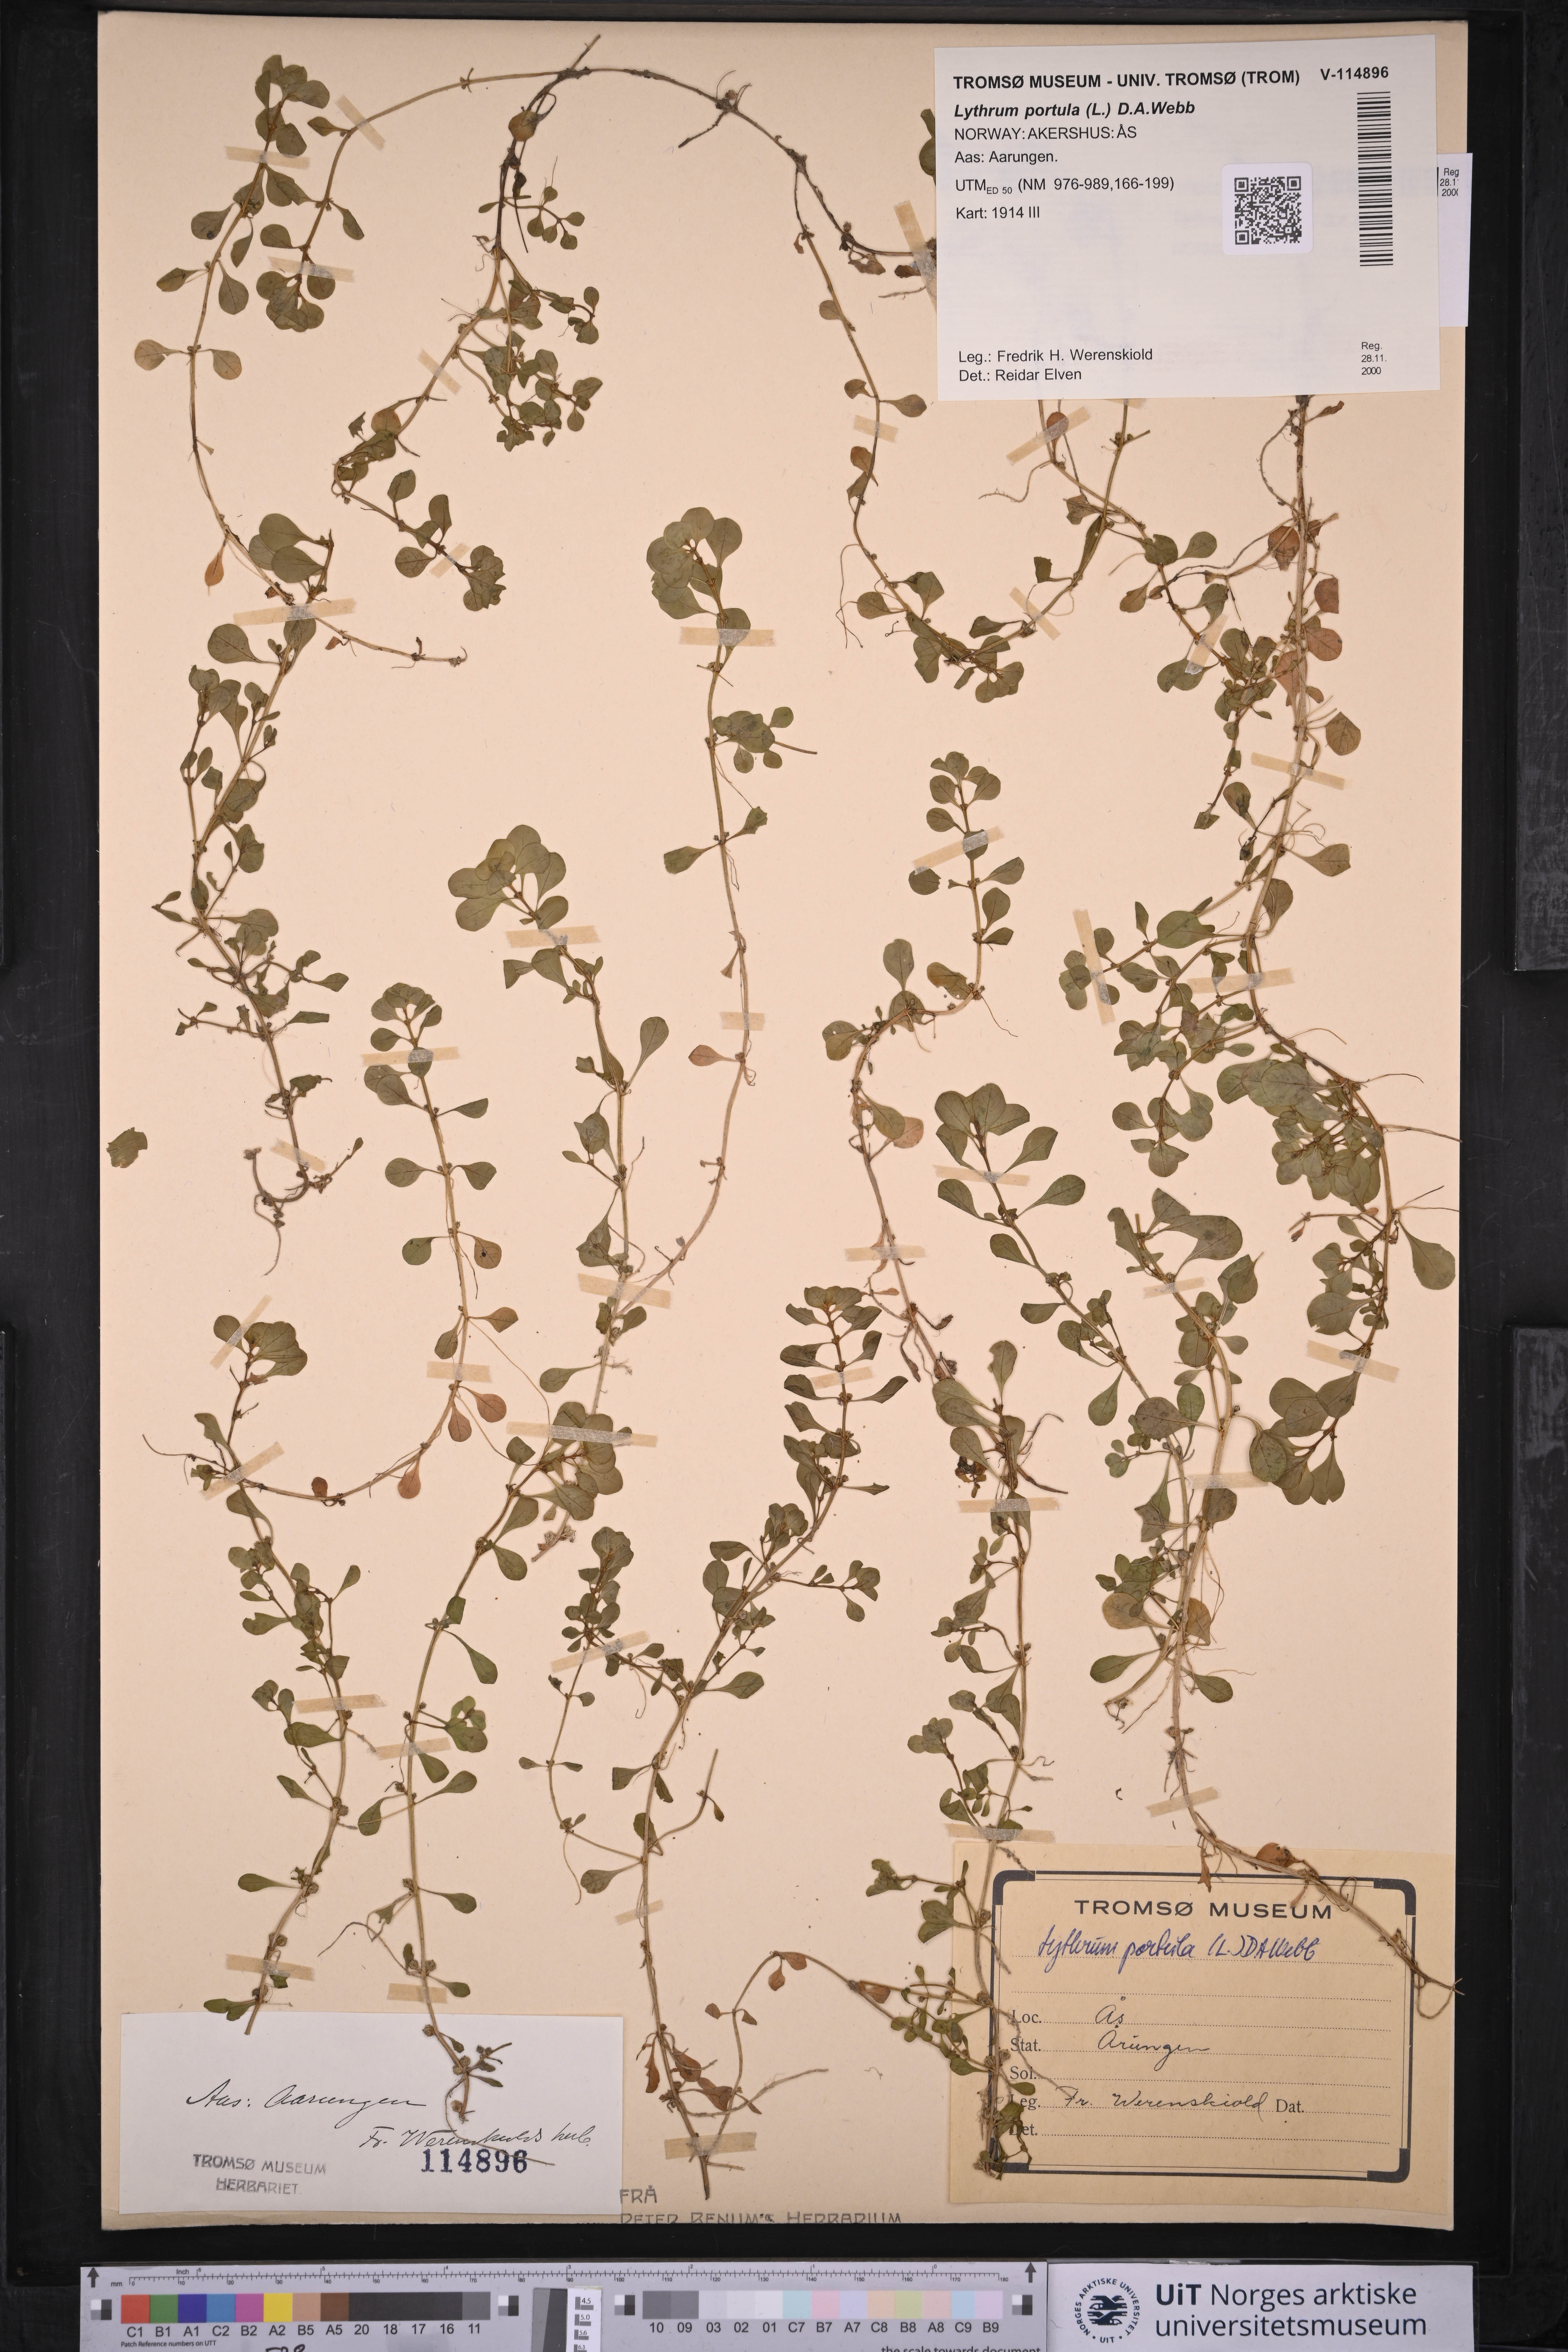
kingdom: Plantae
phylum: Tracheophyta
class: Magnoliopsida
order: Myrtales
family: Lythraceae
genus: Lythrum
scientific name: Lythrum portula
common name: Water purslane
